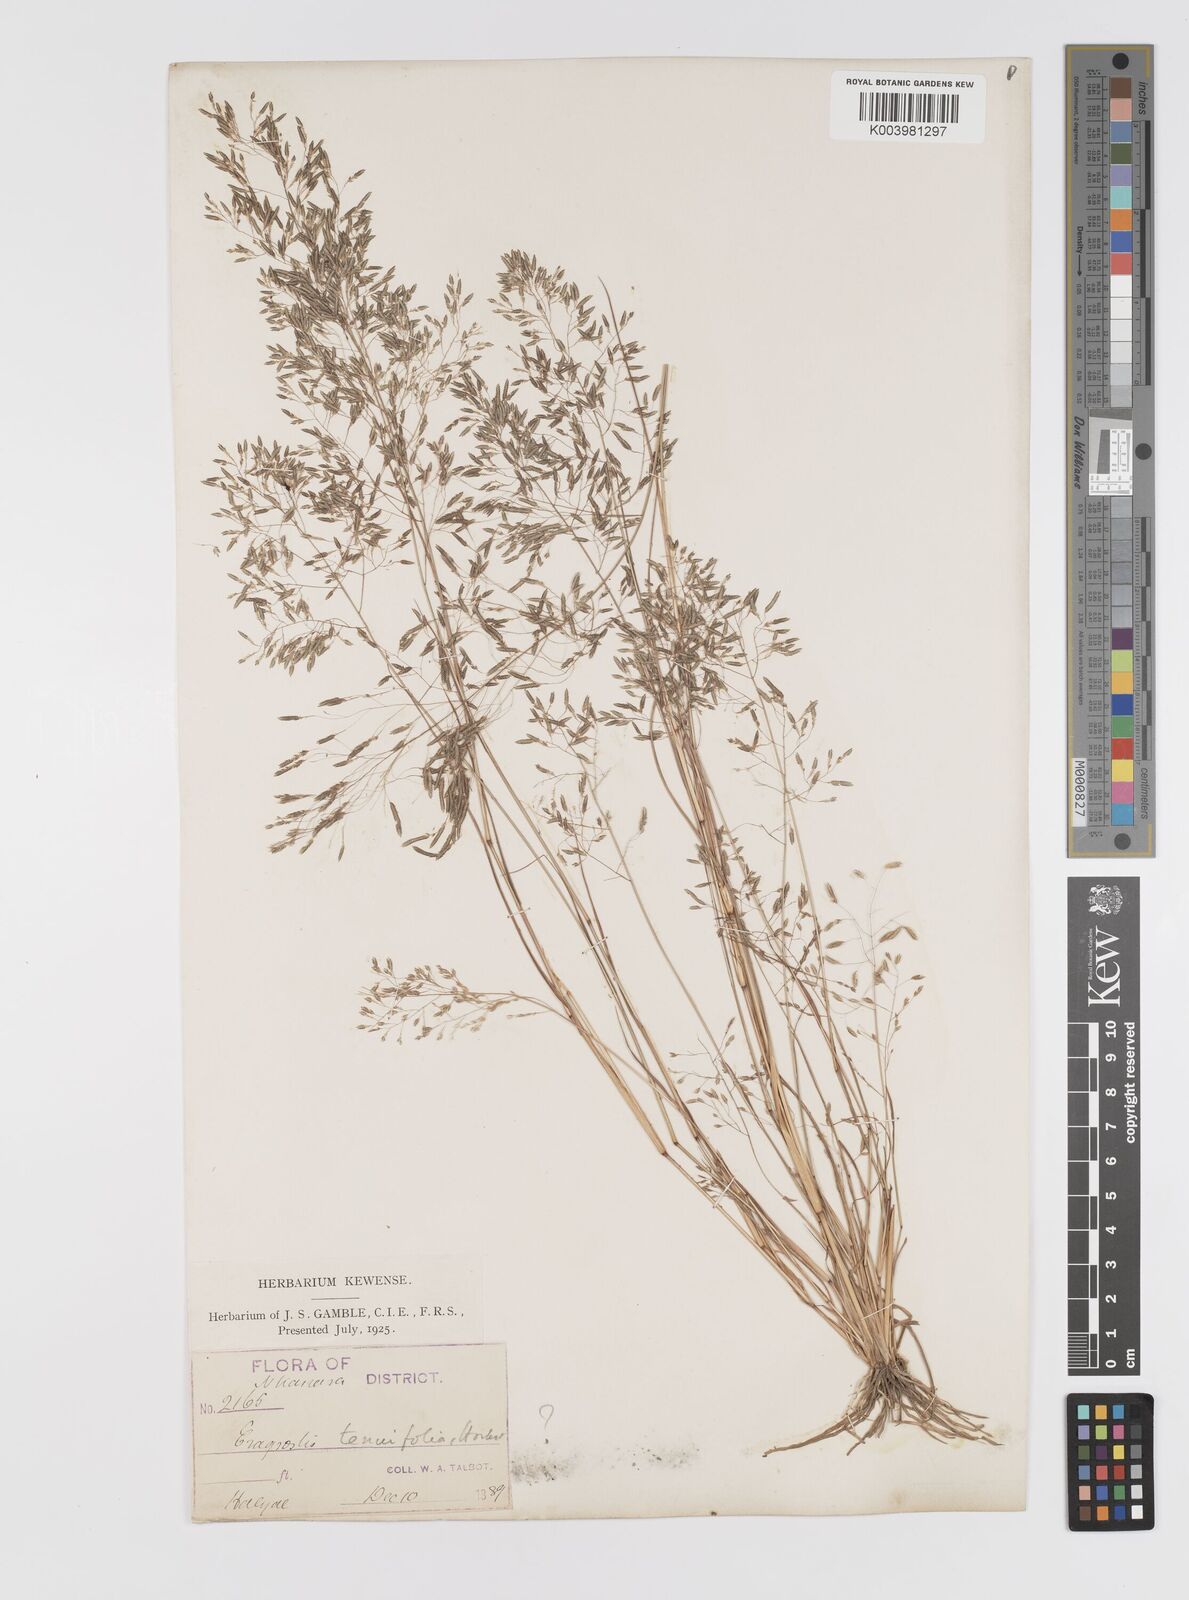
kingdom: Plantae
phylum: Tracheophyta
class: Liliopsida
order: Poales
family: Poaceae
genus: Eragrostis
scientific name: Eragrostis gangetica
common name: Slimflower lovegrass
